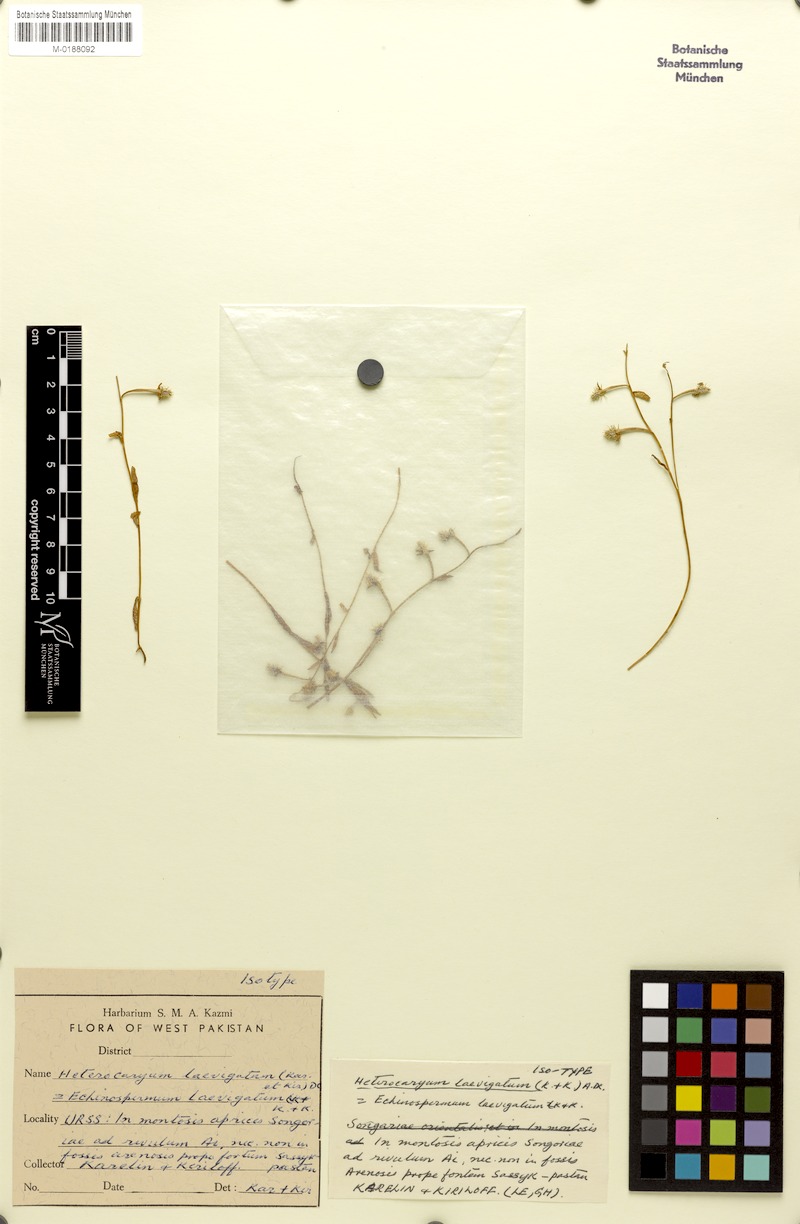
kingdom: Plantae
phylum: Tracheophyta
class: Magnoliopsida
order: Boraginales
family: Boraginaceae
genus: Heterocaryum
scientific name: Heterocaryum laevigatum
